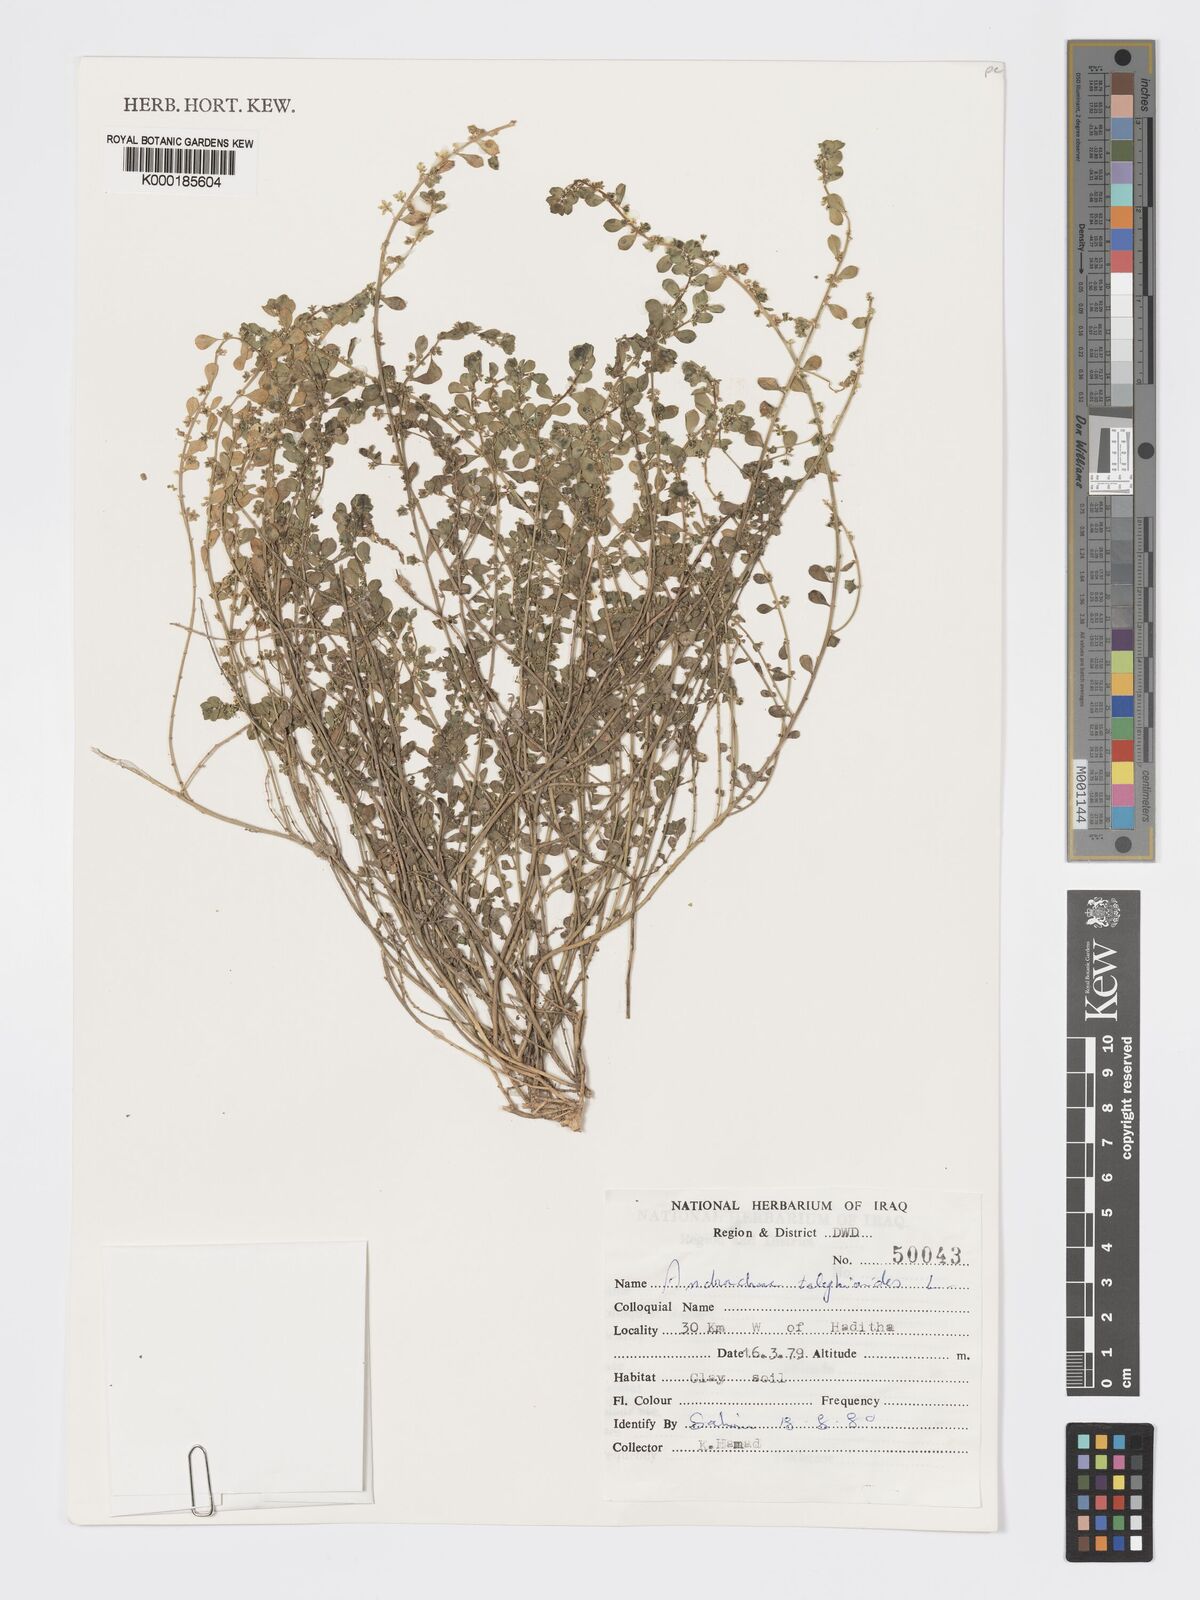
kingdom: Plantae
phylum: Tracheophyta
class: Magnoliopsida
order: Malpighiales
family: Phyllanthaceae
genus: Andrachne
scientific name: Andrachne telephioides
